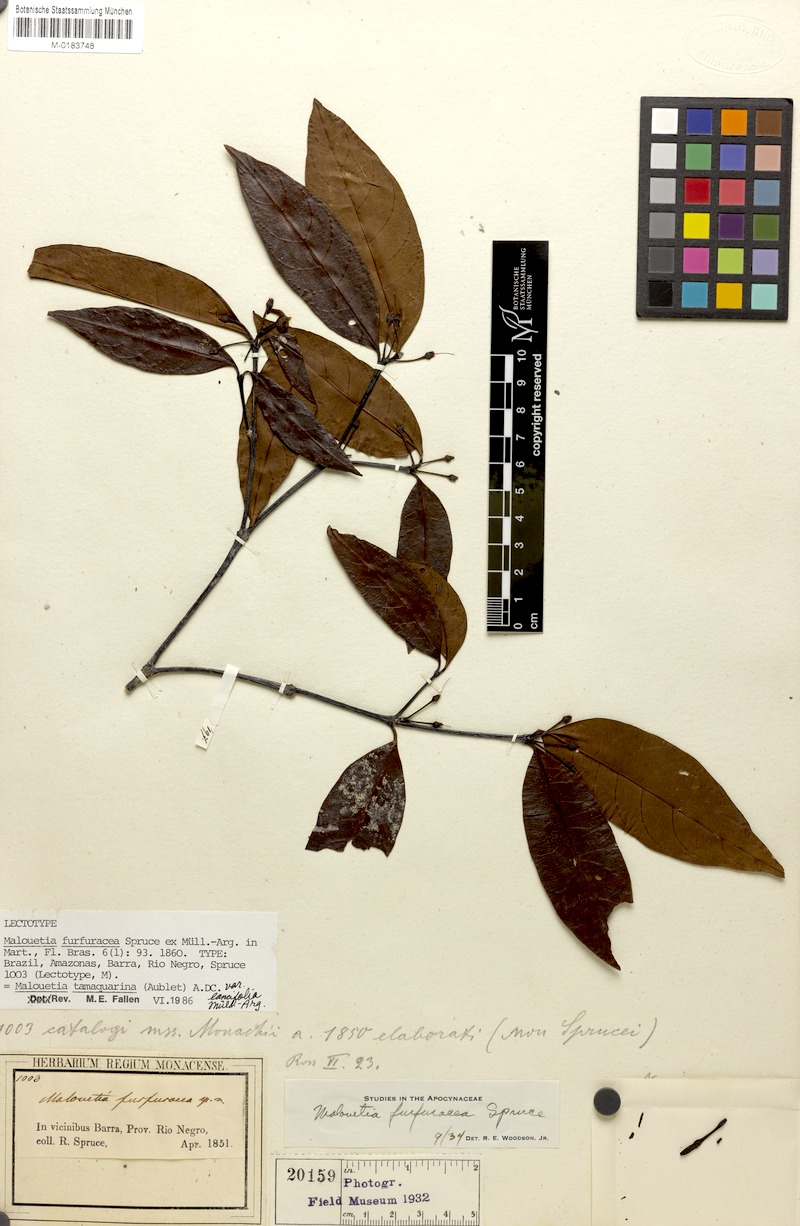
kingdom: Plantae
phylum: Tracheophyta
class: Magnoliopsida
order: Gentianales
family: Apocynaceae
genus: Malouetia
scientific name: Malouetia tamaquarina
